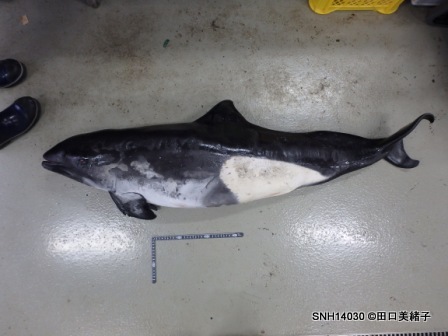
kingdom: Animalia
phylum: Chordata
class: Mammalia
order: Cetacea
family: Phocoenidae
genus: Phocoenoides
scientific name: Phocoenoides dalli
